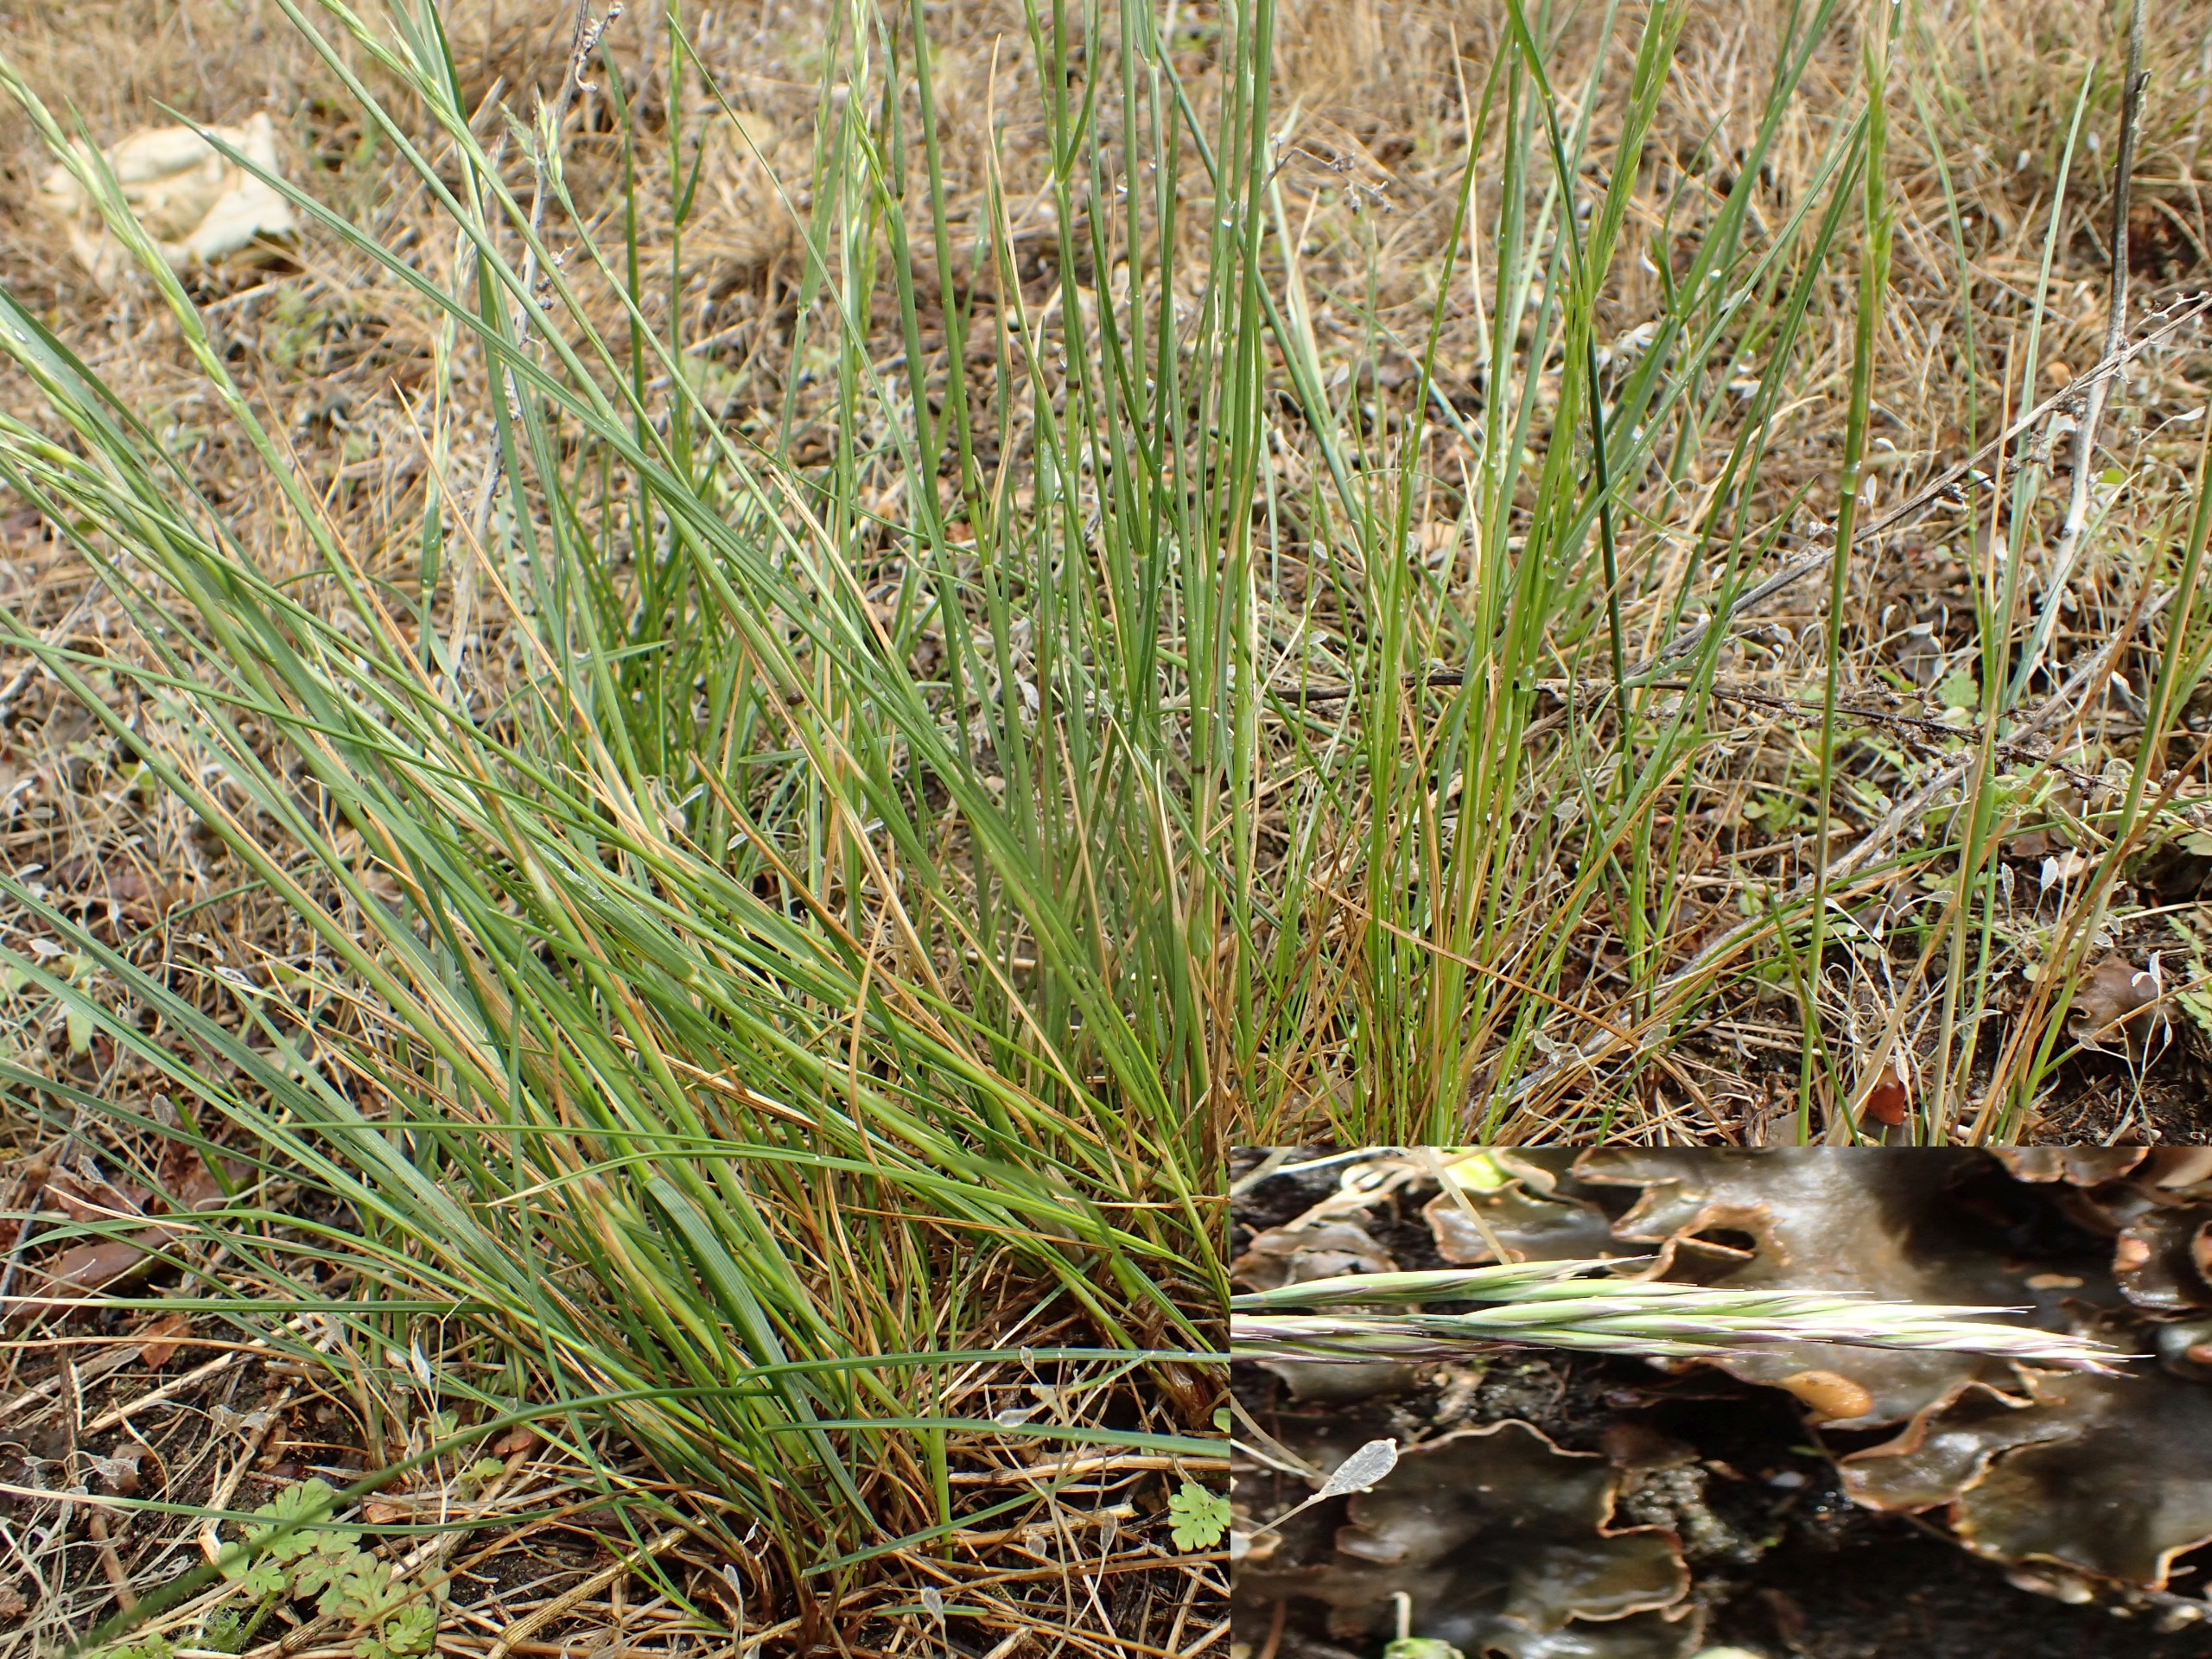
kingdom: Plantae
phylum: Tracheophyta
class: Liliopsida
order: Poales
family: Poaceae
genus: Festuca
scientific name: Festuca
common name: Svingelslægten
